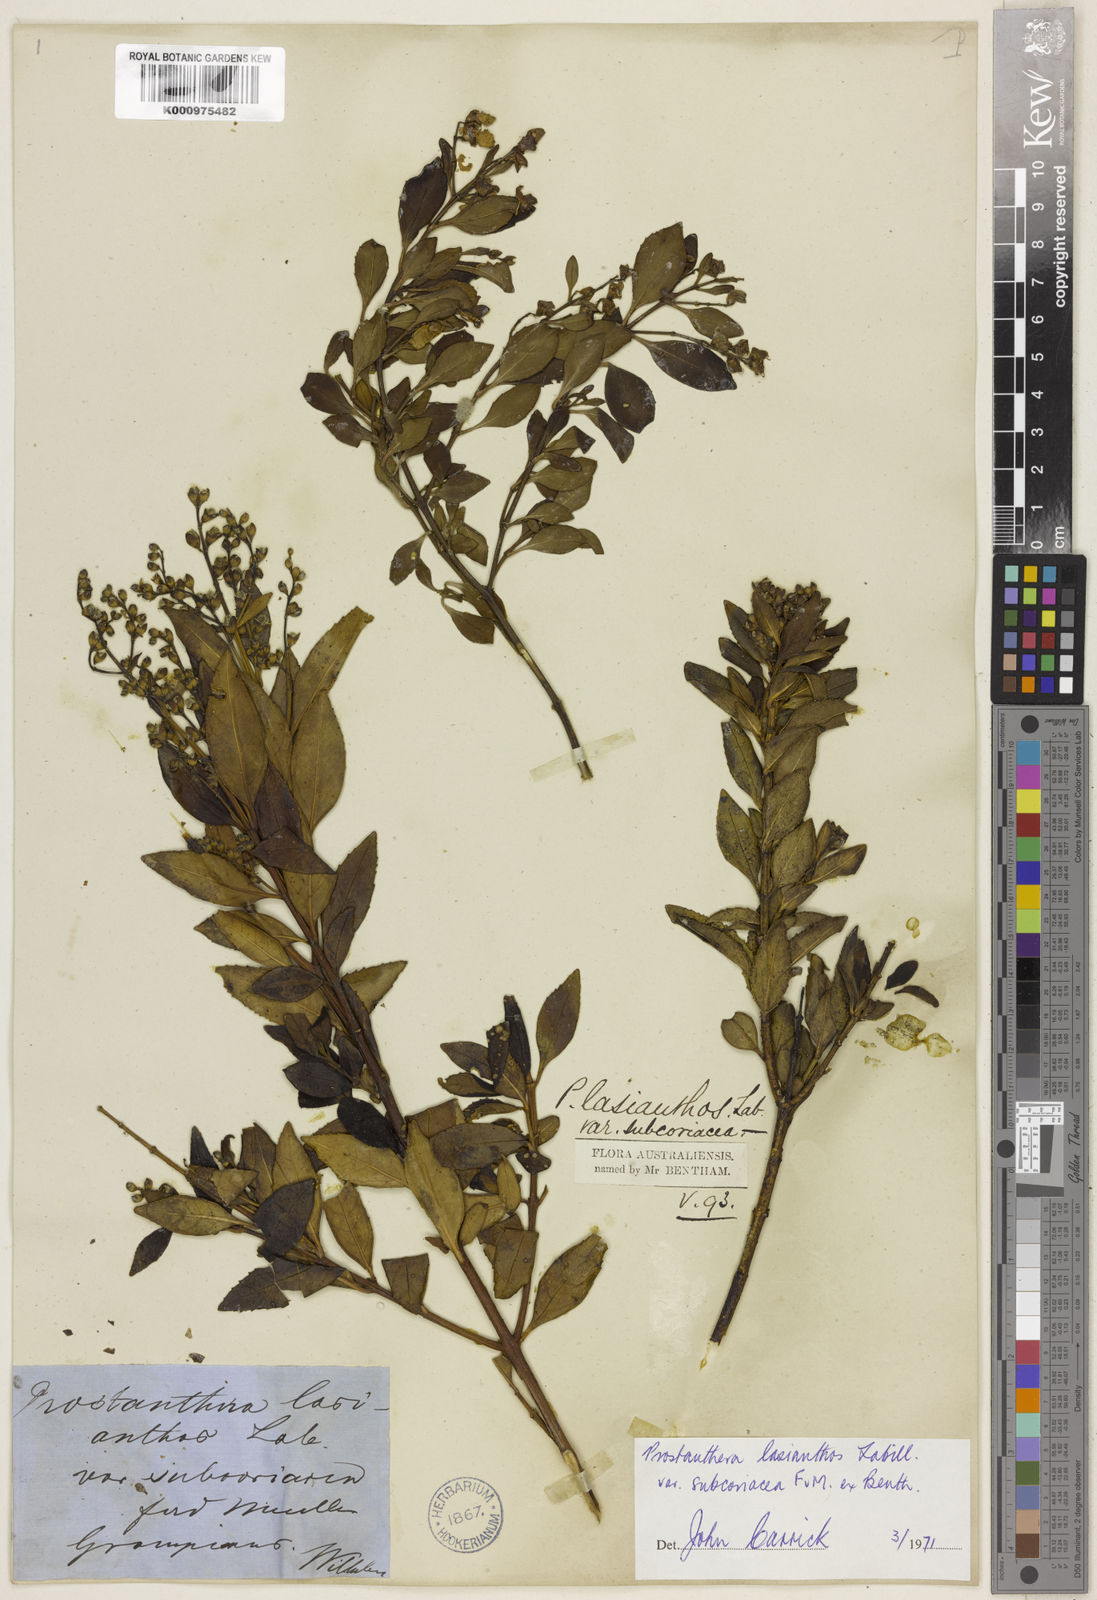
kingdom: Plantae
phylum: Tracheophyta
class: Magnoliopsida
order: Lamiales
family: Lamiaceae
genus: Prostanthera
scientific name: Prostanthera lasianthos
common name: Mountain-lilac
